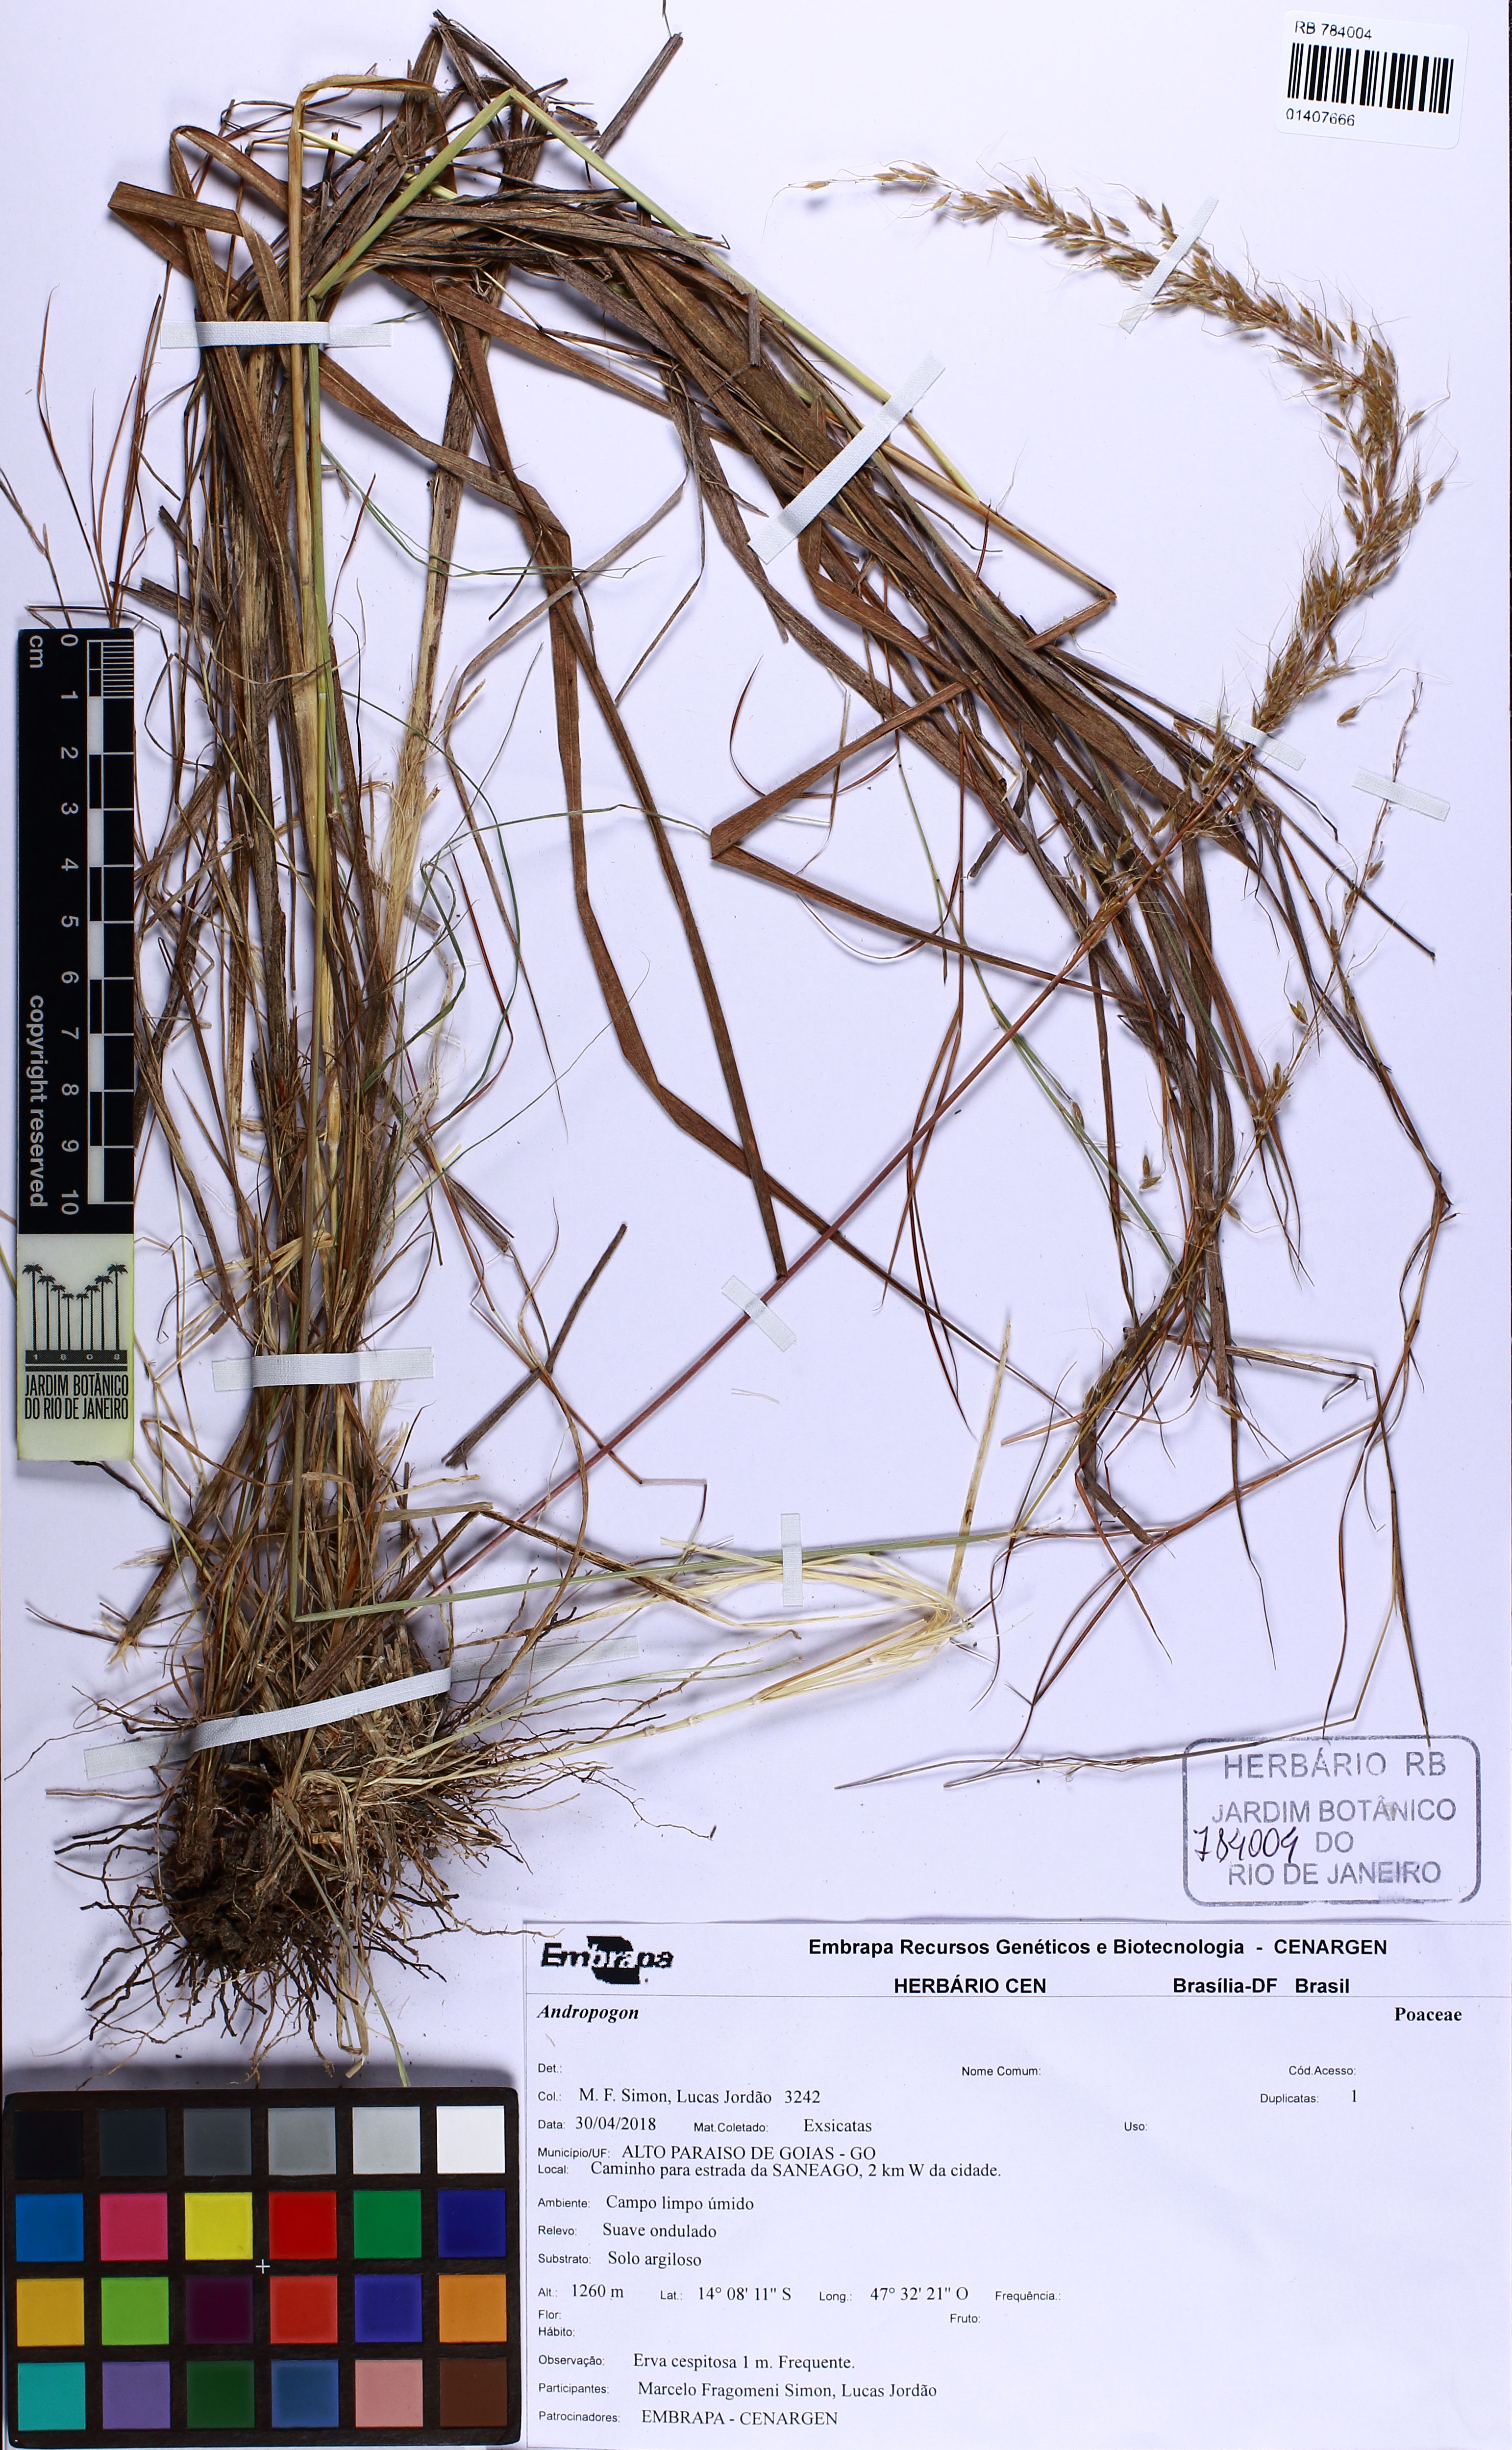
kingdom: Plantae
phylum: Tracheophyta
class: Liliopsida
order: Poales
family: Poaceae
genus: Andropogon
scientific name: Andropogon
